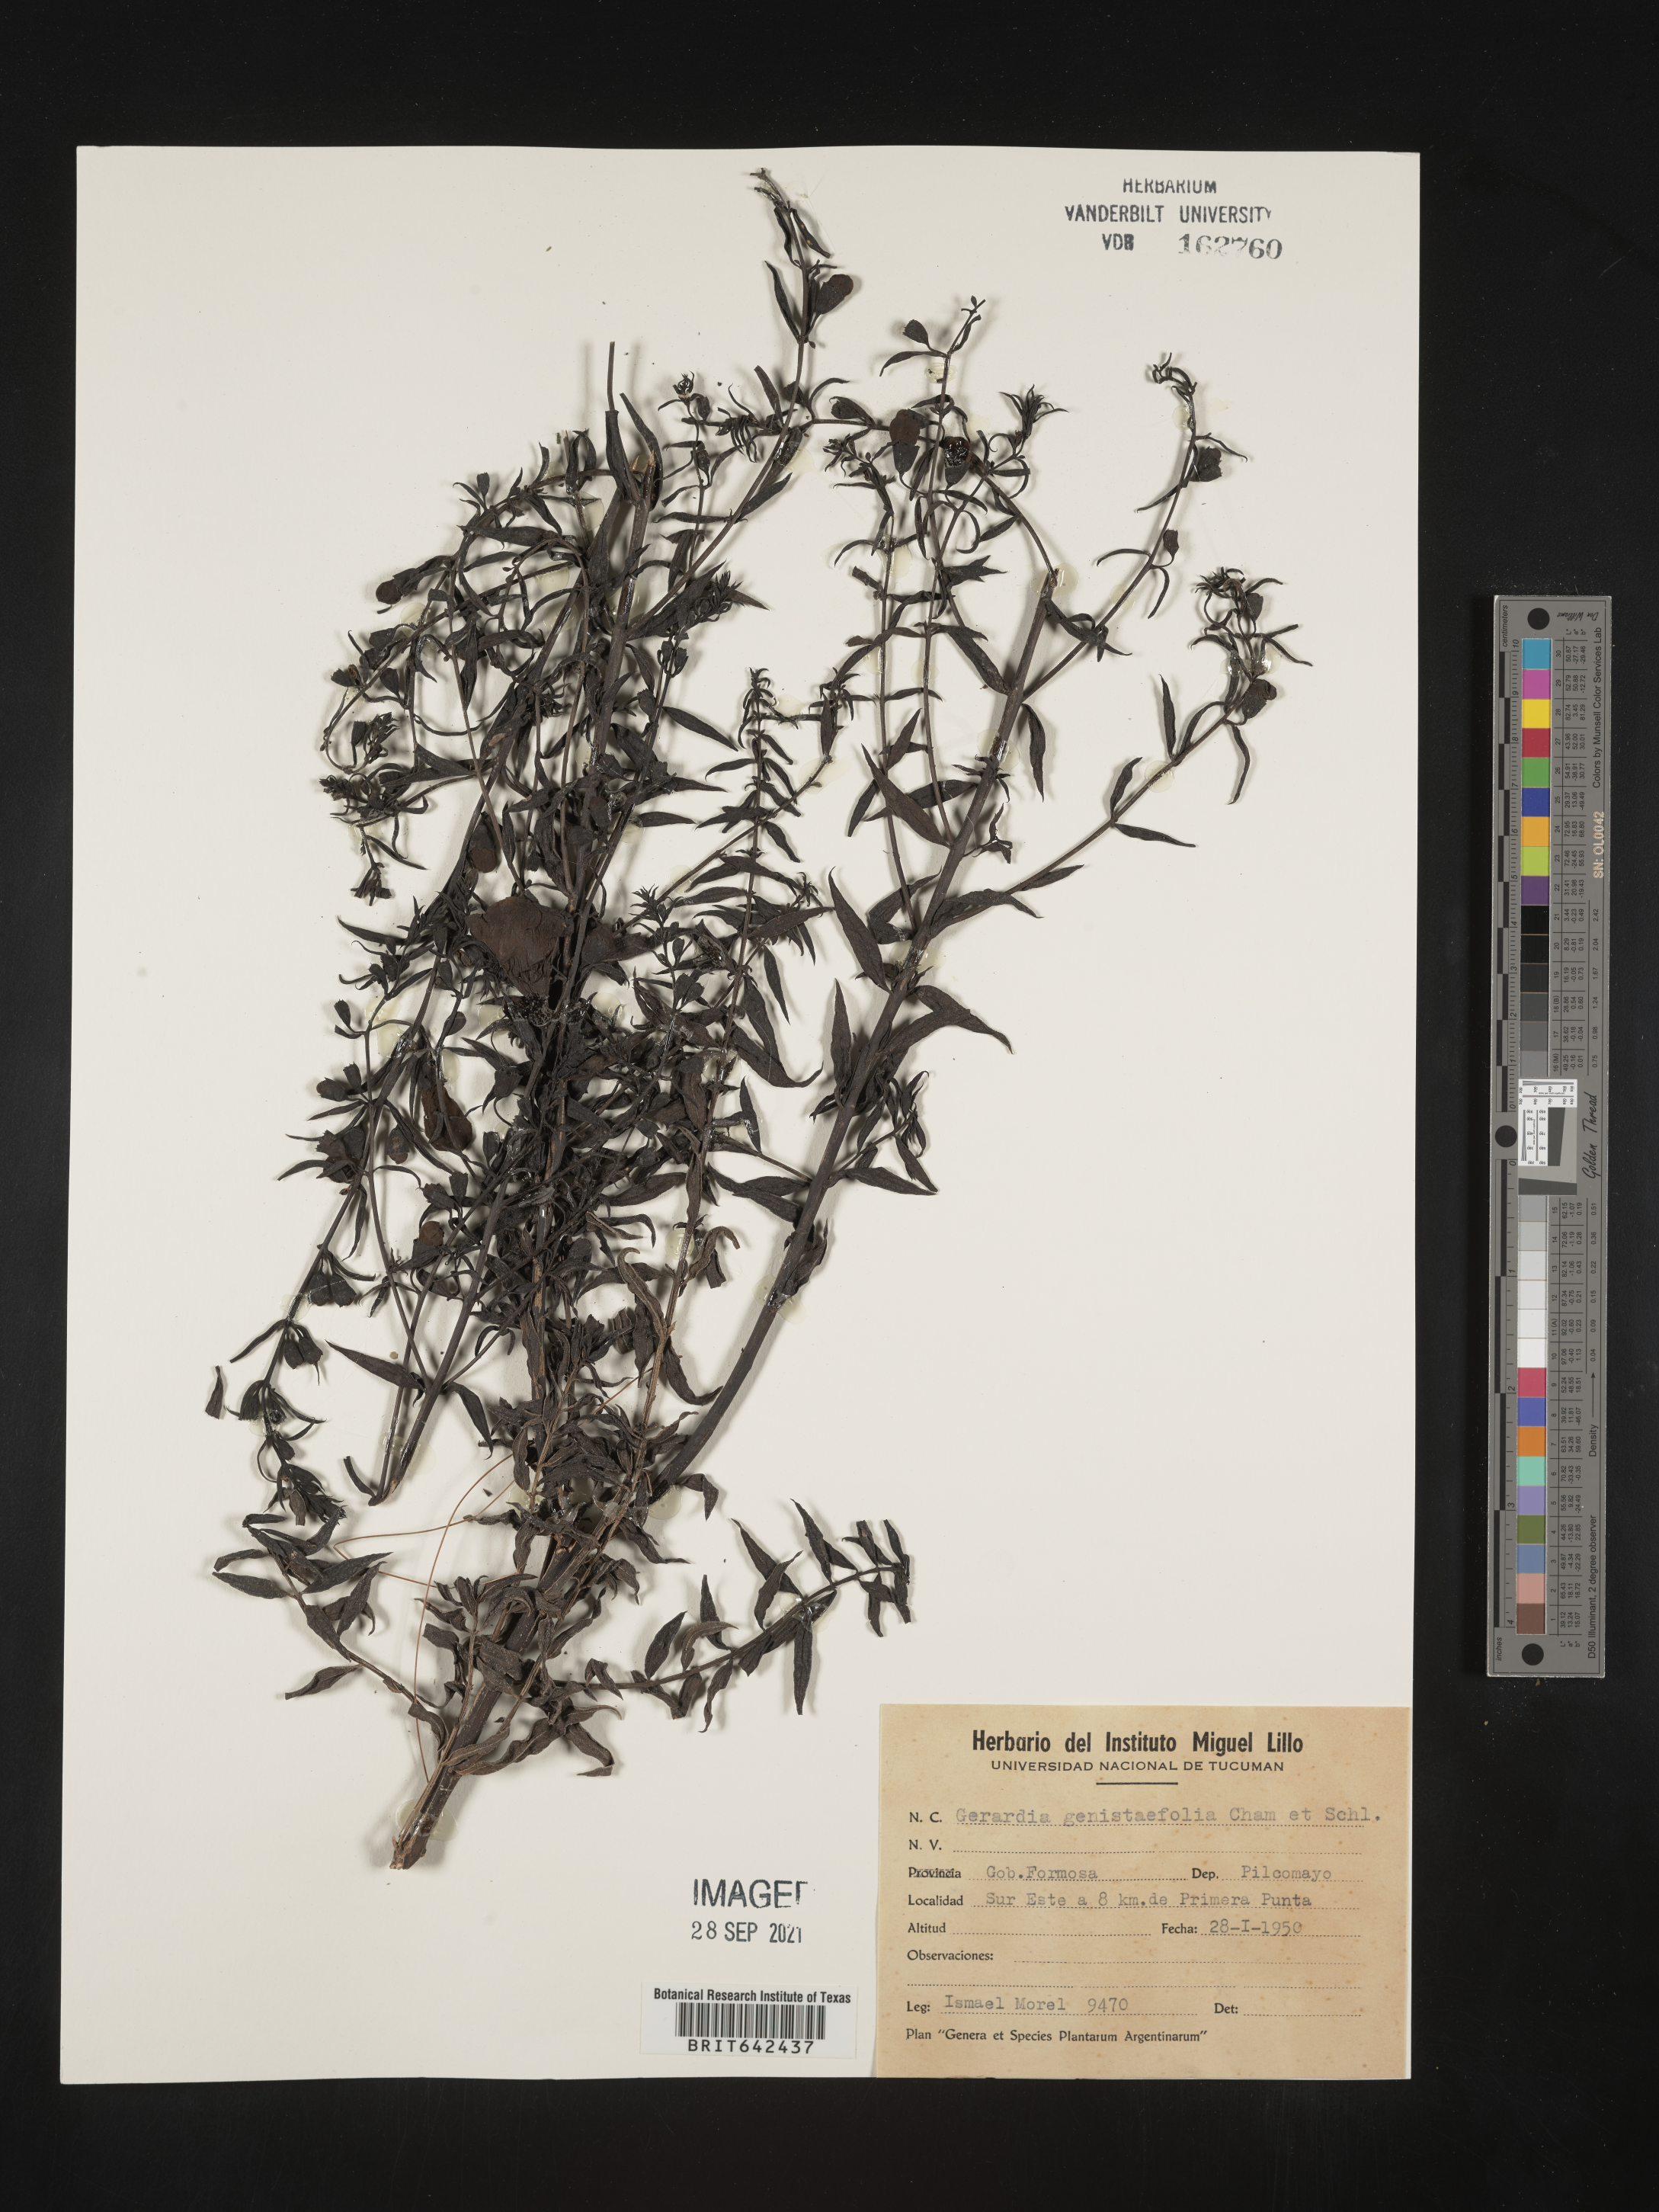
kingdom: Plantae
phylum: Tracheophyta
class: Magnoliopsida
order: Lamiales
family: Orobanchaceae
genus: Agalinis
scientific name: Agalinis
